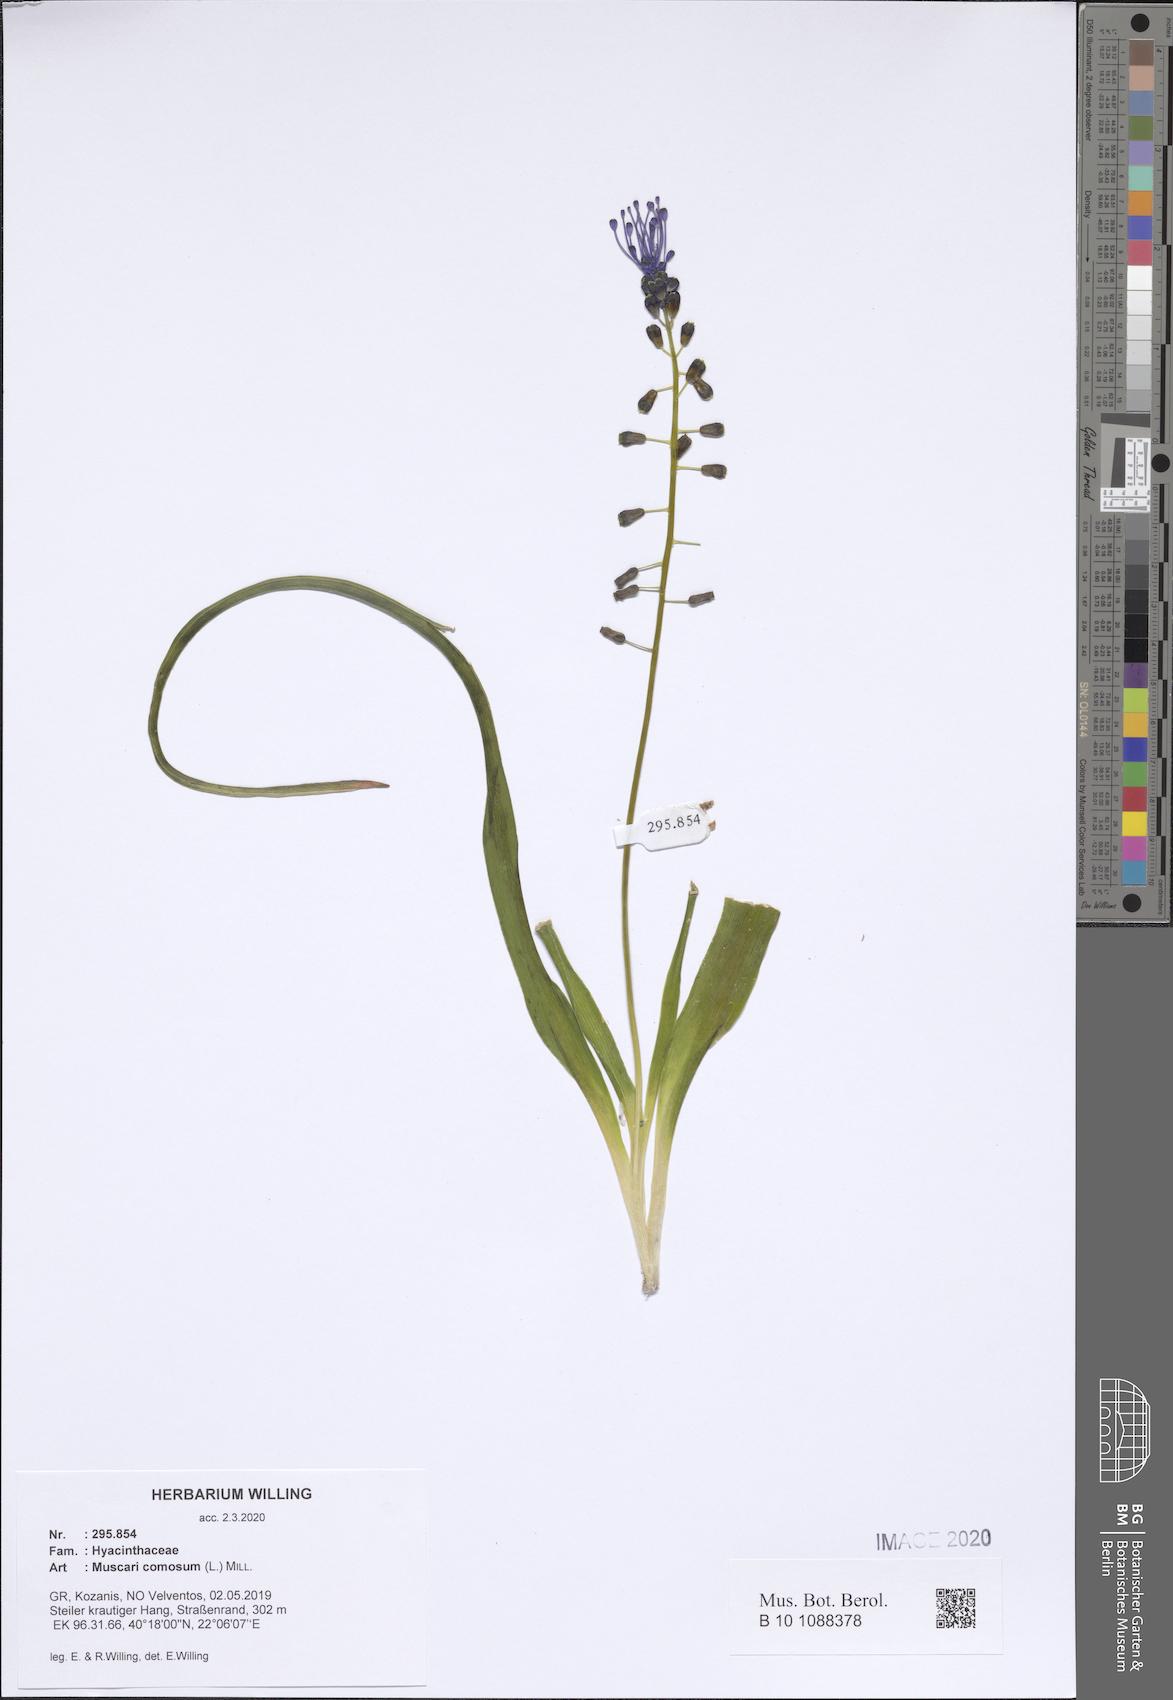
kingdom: Plantae
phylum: Tracheophyta
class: Liliopsida
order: Asparagales
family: Asparagaceae
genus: Muscari
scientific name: Muscari comosum
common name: Tassel hyacinth
